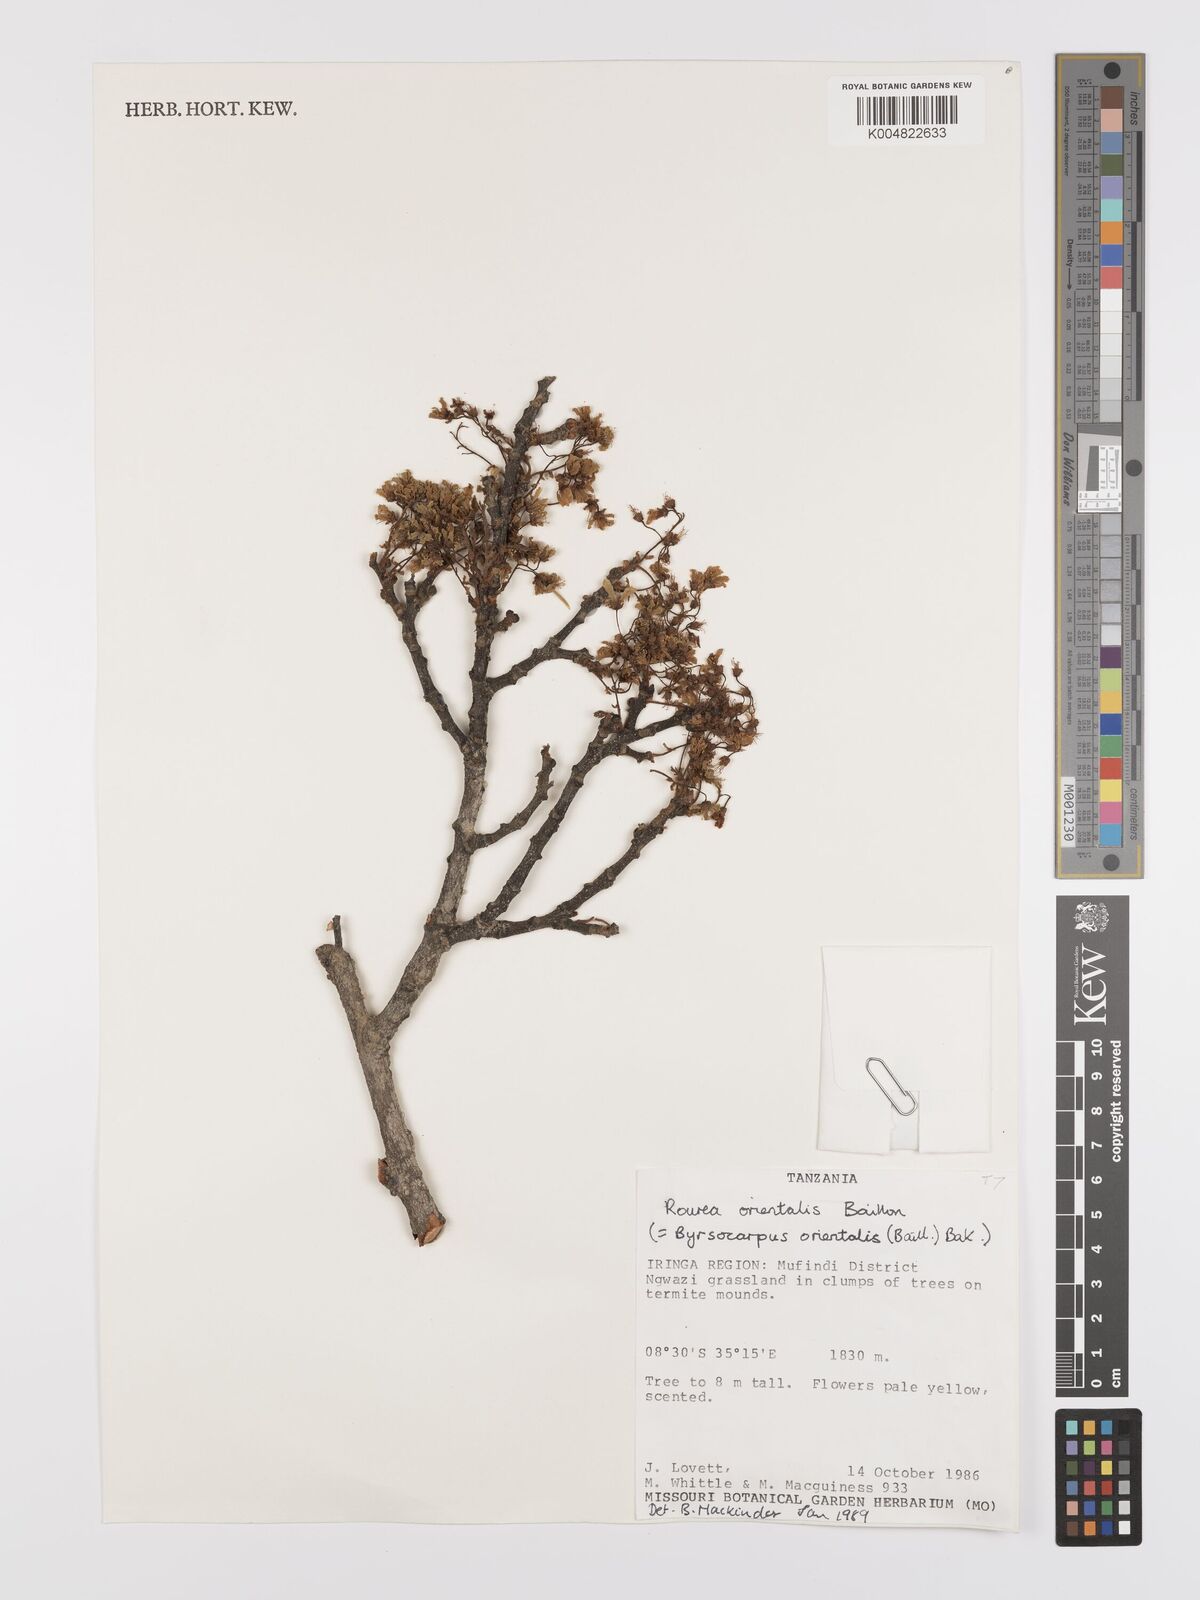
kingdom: Plantae
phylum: Tracheophyta
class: Magnoliopsida
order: Oxalidales
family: Connaraceae
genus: Rourea
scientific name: Rourea orientalis
